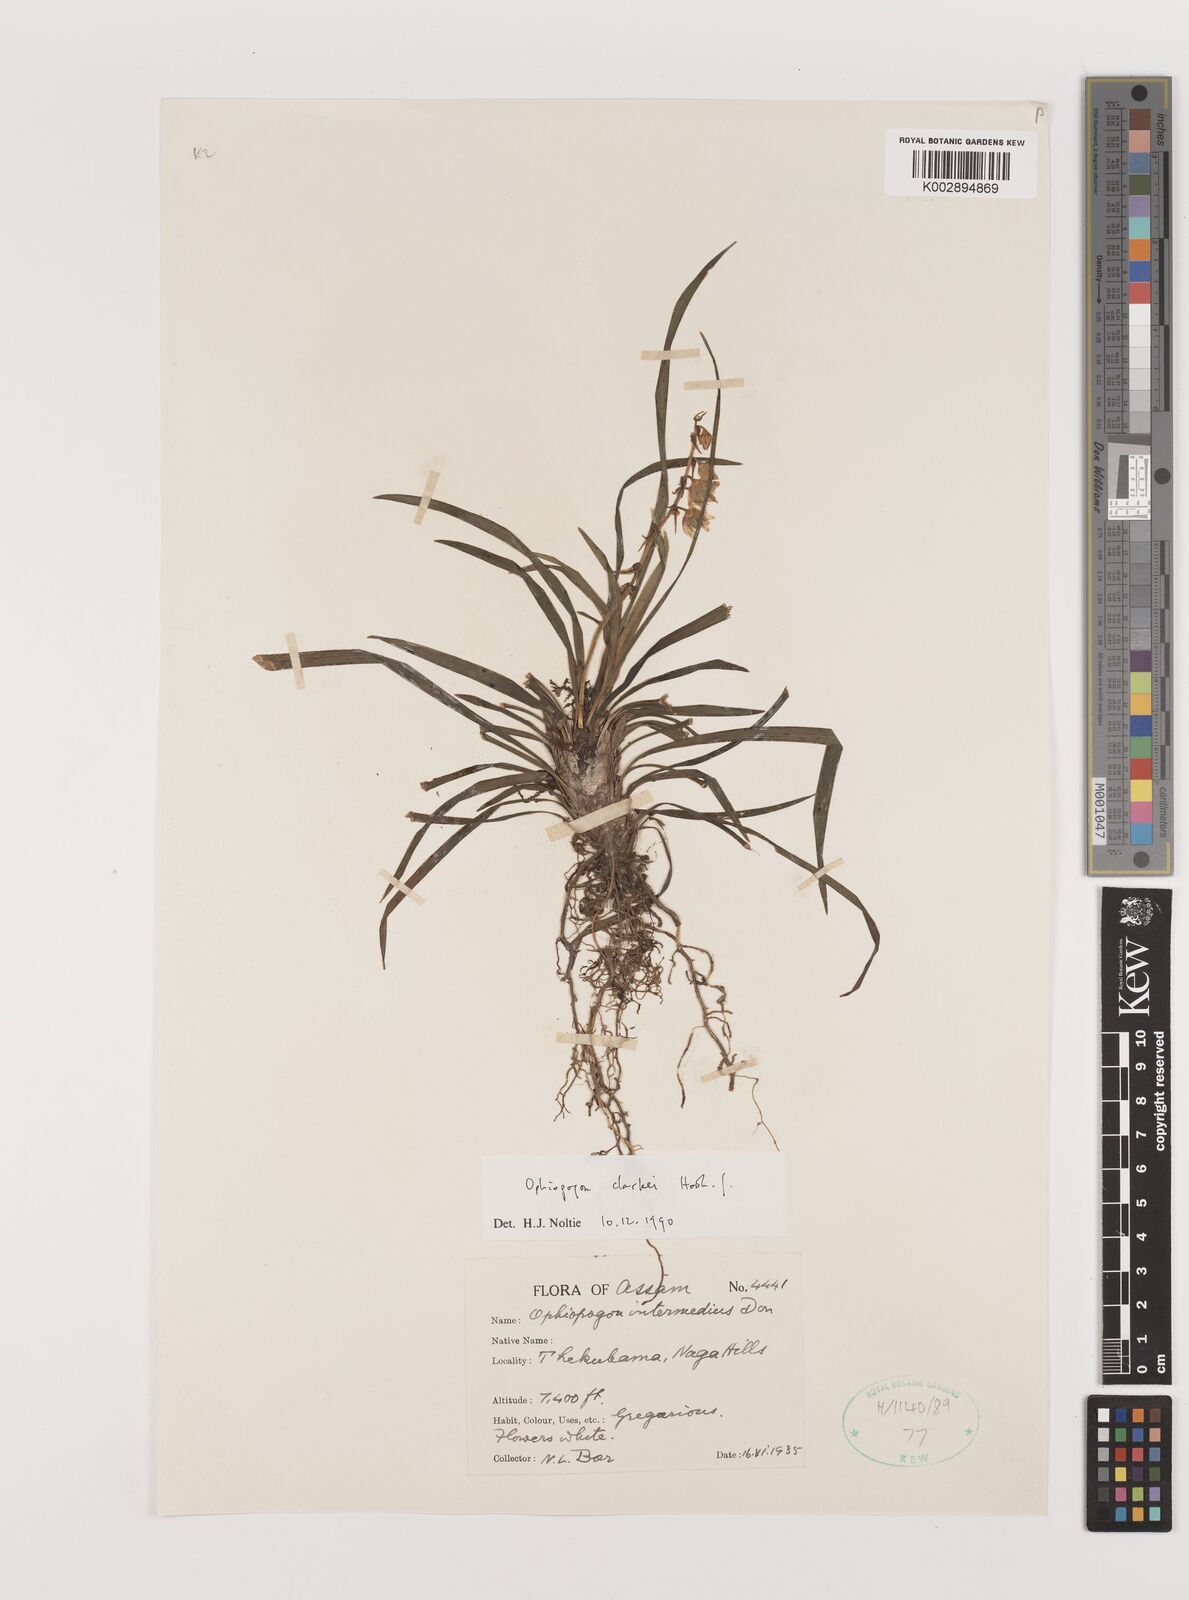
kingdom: Plantae
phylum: Tracheophyta
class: Liliopsida
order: Asparagales
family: Asparagaceae
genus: Ophiopogon
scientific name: Ophiopogon clarkei
